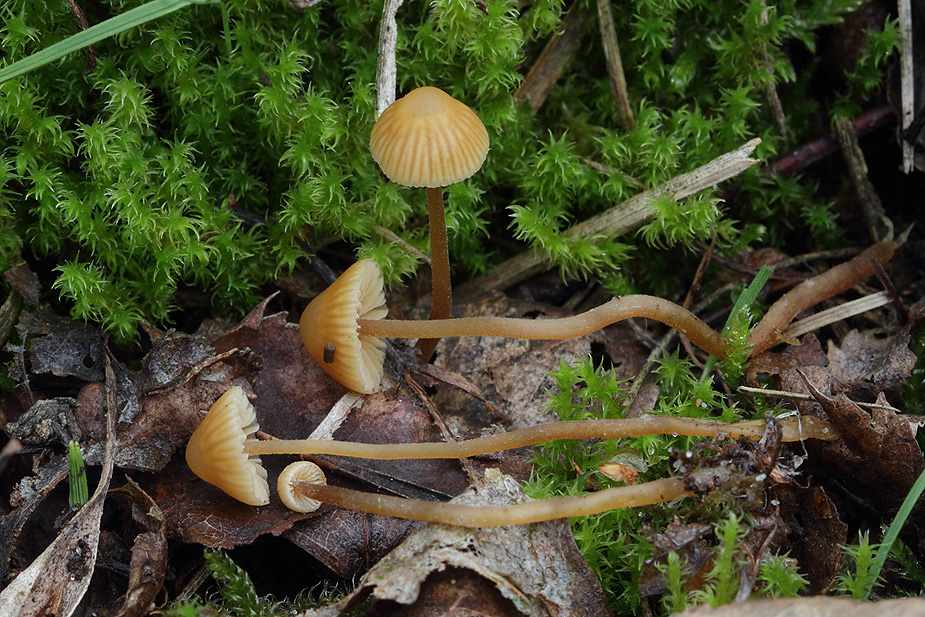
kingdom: Fungi
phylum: Basidiomycota
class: Agaricomycetes
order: Agaricales
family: Hymenogastraceae
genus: Galerina
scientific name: Galerina vittiformis
